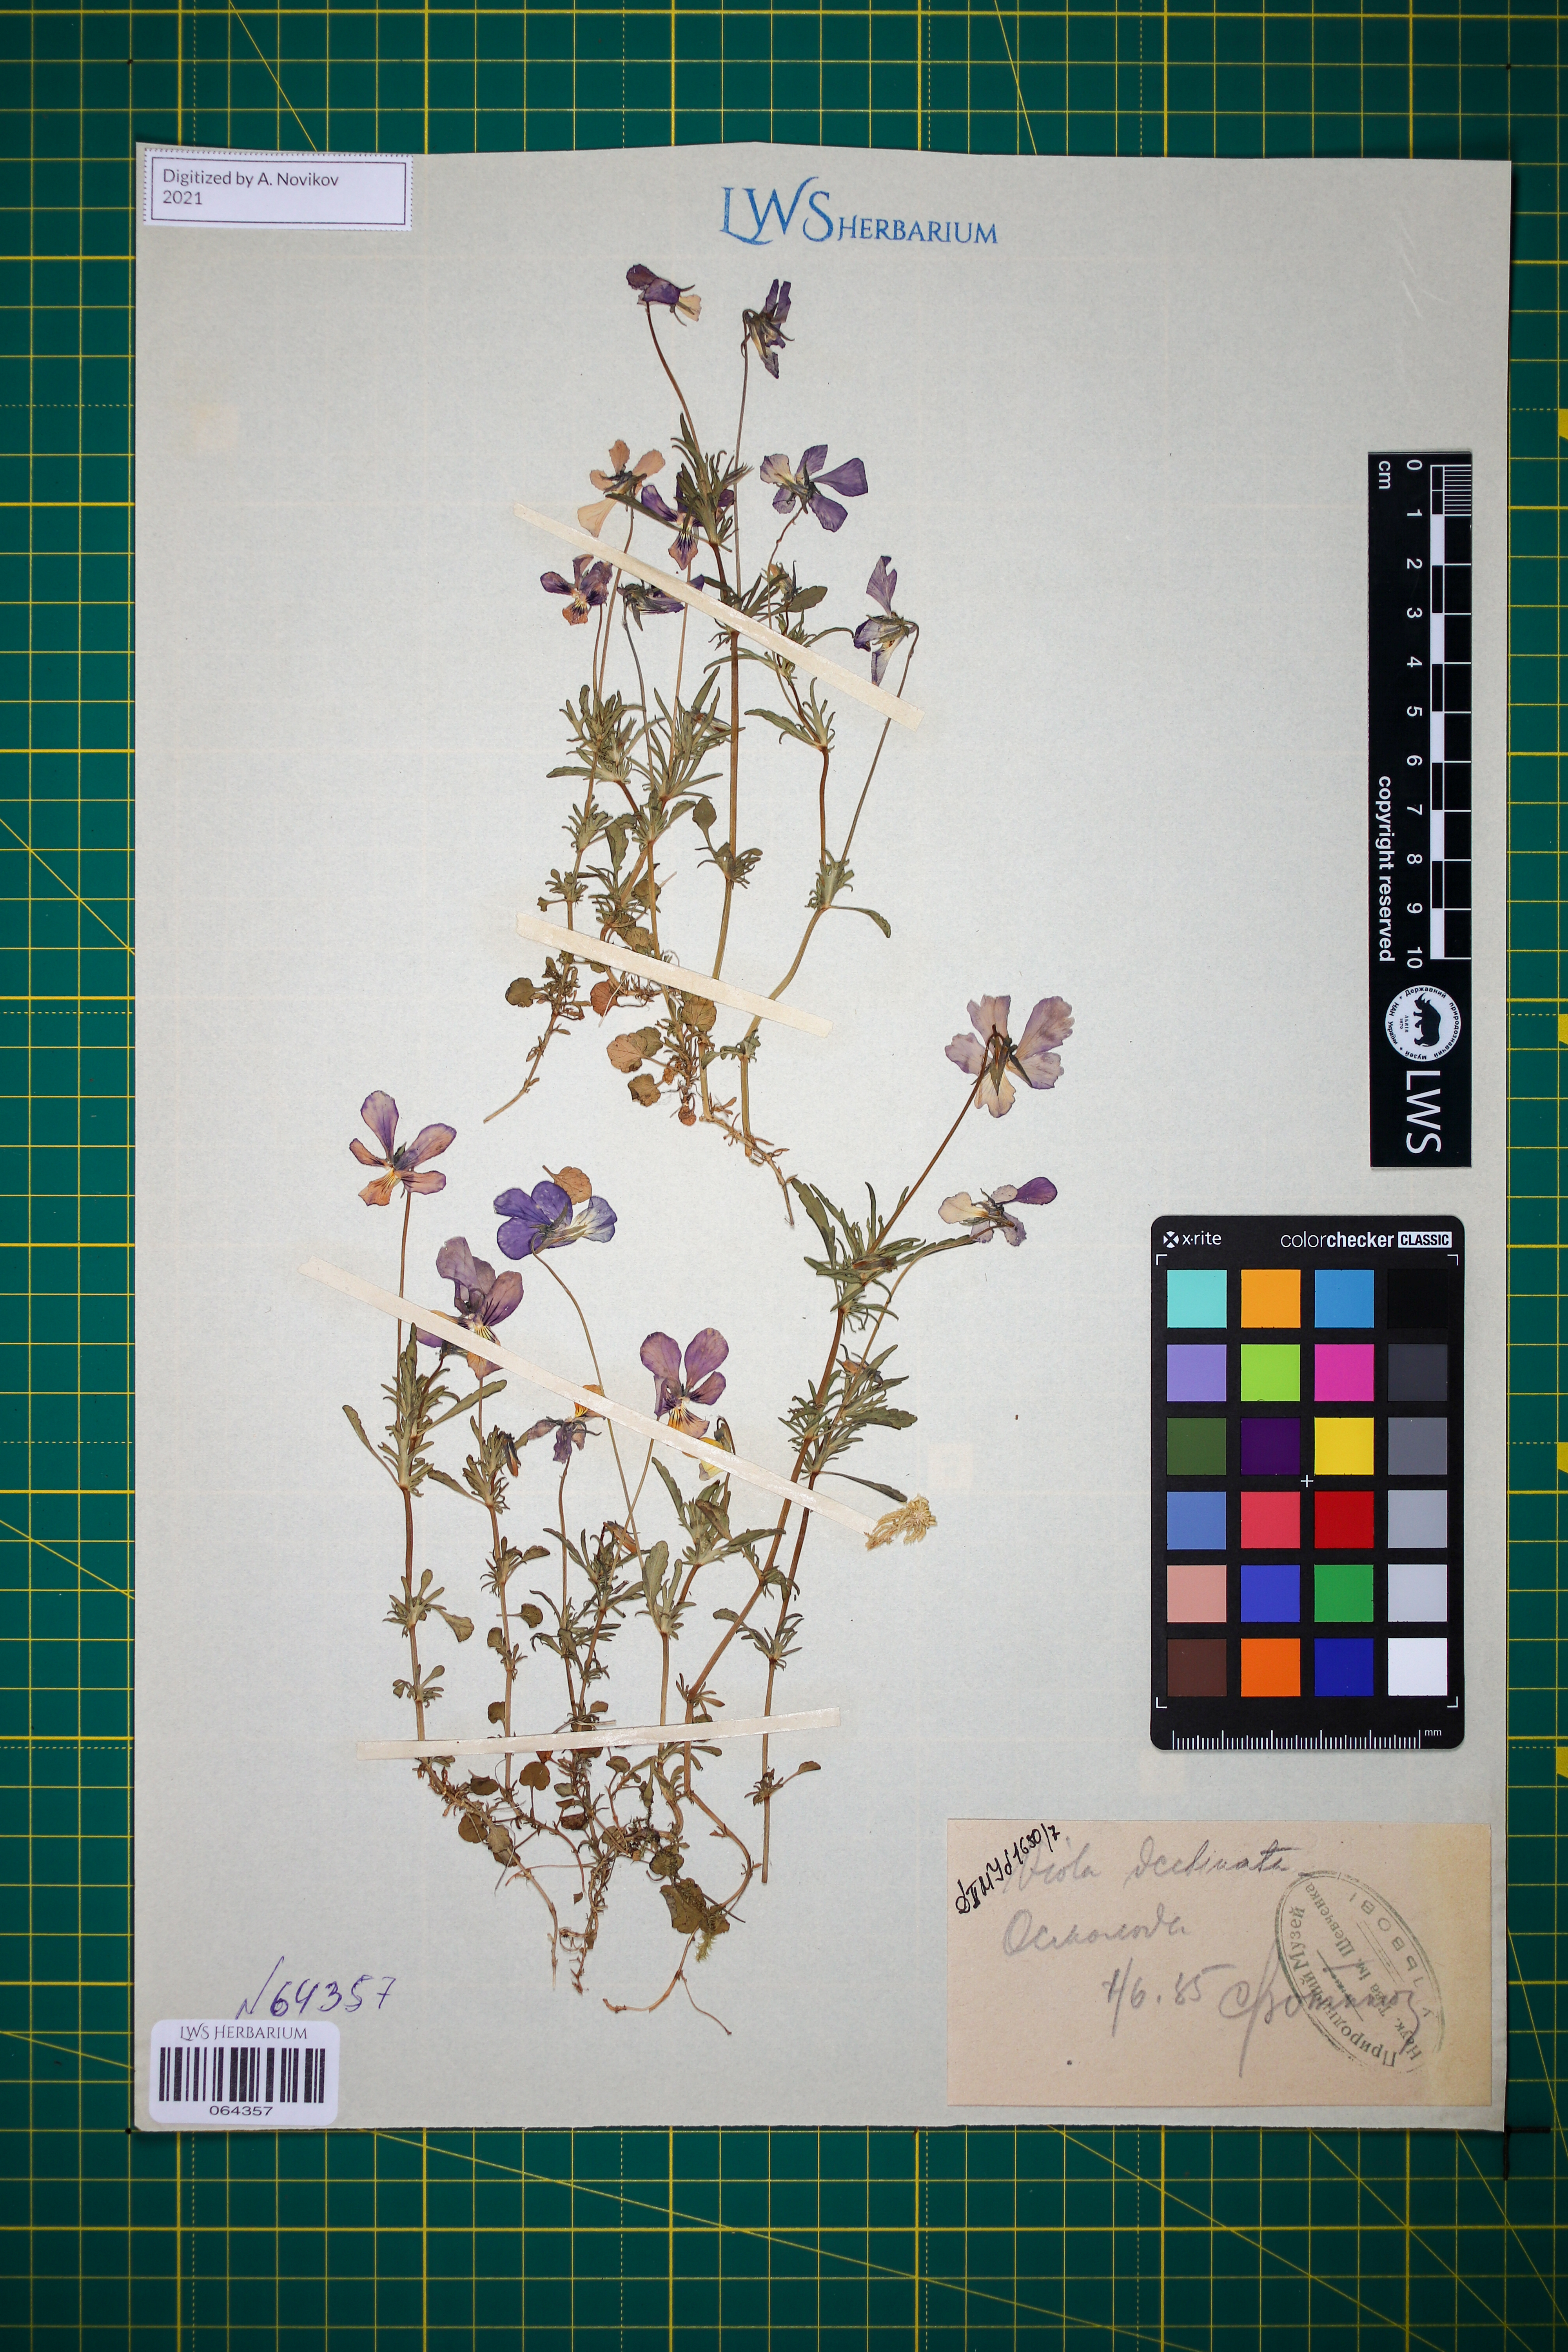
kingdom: Plantae
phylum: Tracheophyta
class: Magnoliopsida
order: Malpighiales
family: Violaceae
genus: Viola
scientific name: Viola declinata
